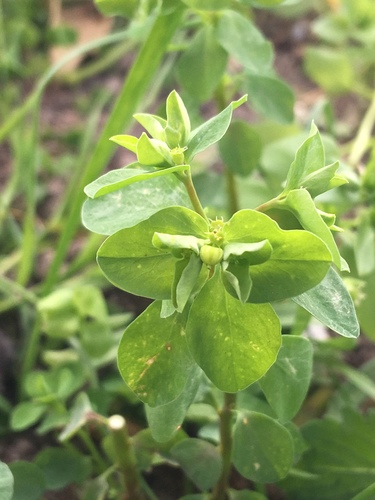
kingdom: Plantae
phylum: Tracheophyta
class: Magnoliopsida
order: Malpighiales
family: Euphorbiaceae
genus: Euphorbia
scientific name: Euphorbia peplus
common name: Petty spurge
